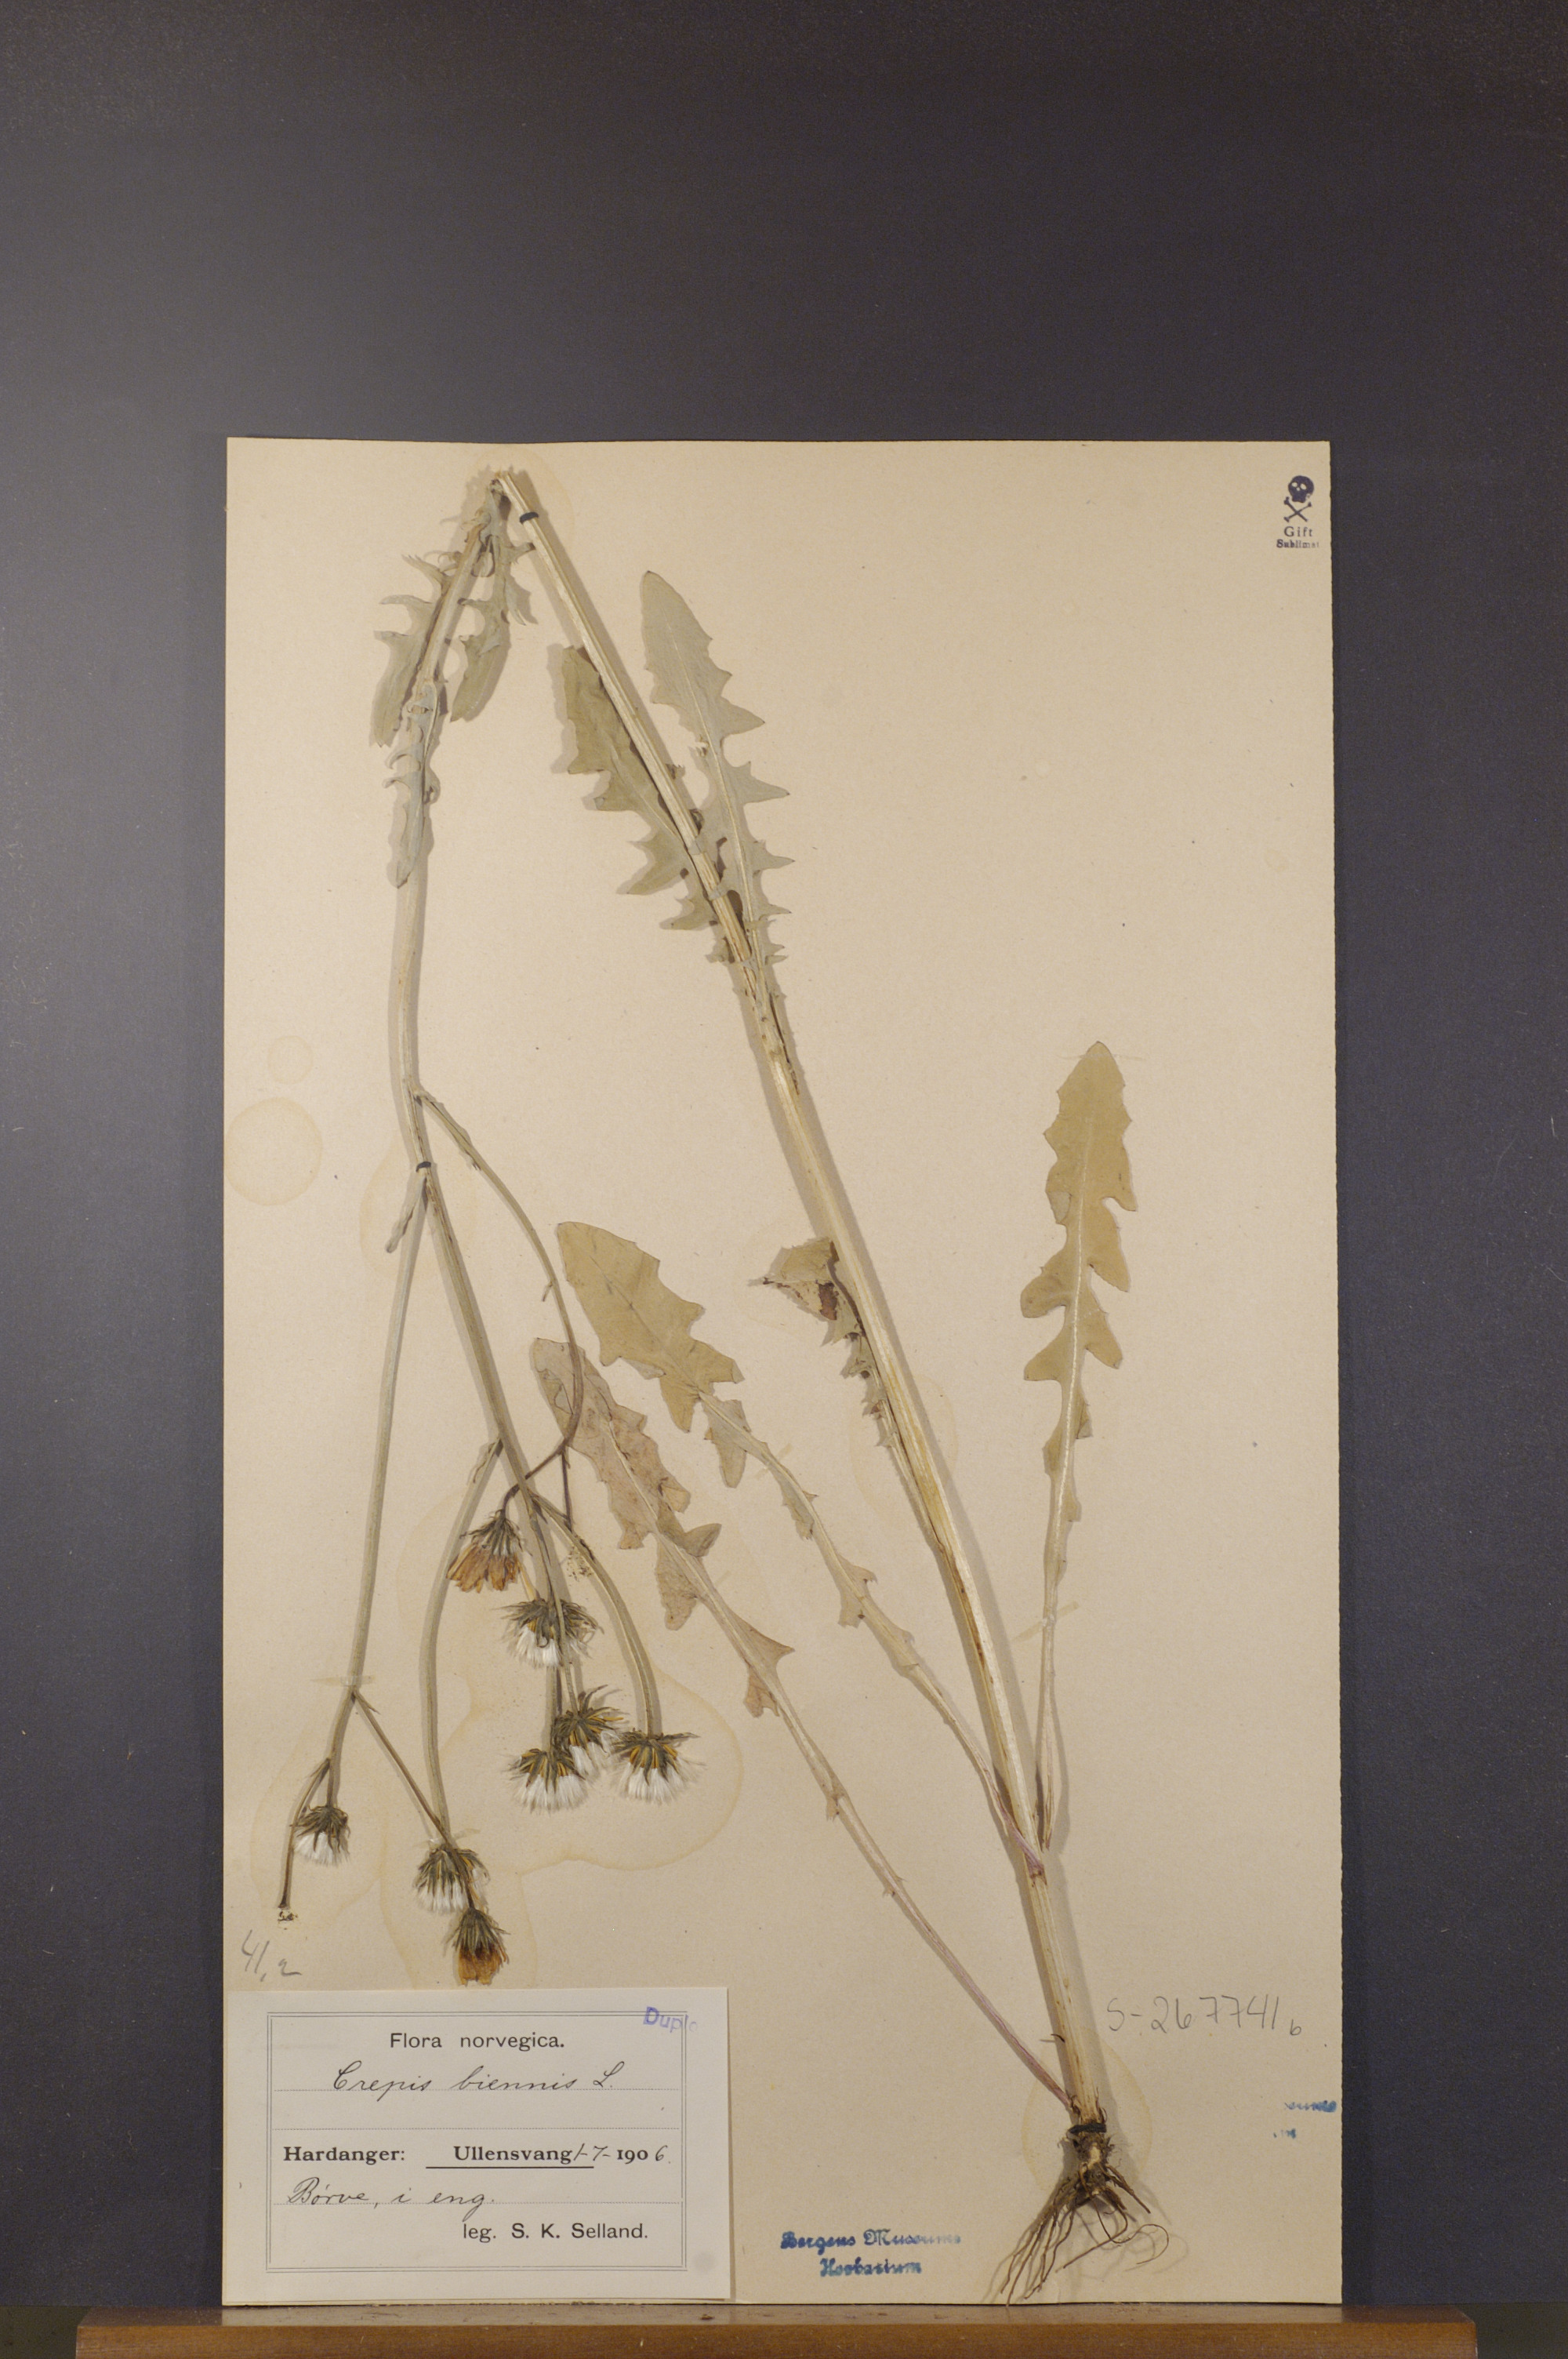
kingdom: Plantae
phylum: Tracheophyta
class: Magnoliopsida
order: Asterales
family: Asteraceae
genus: Crepis
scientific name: Crepis biennis
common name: Rough hawk's-beard
